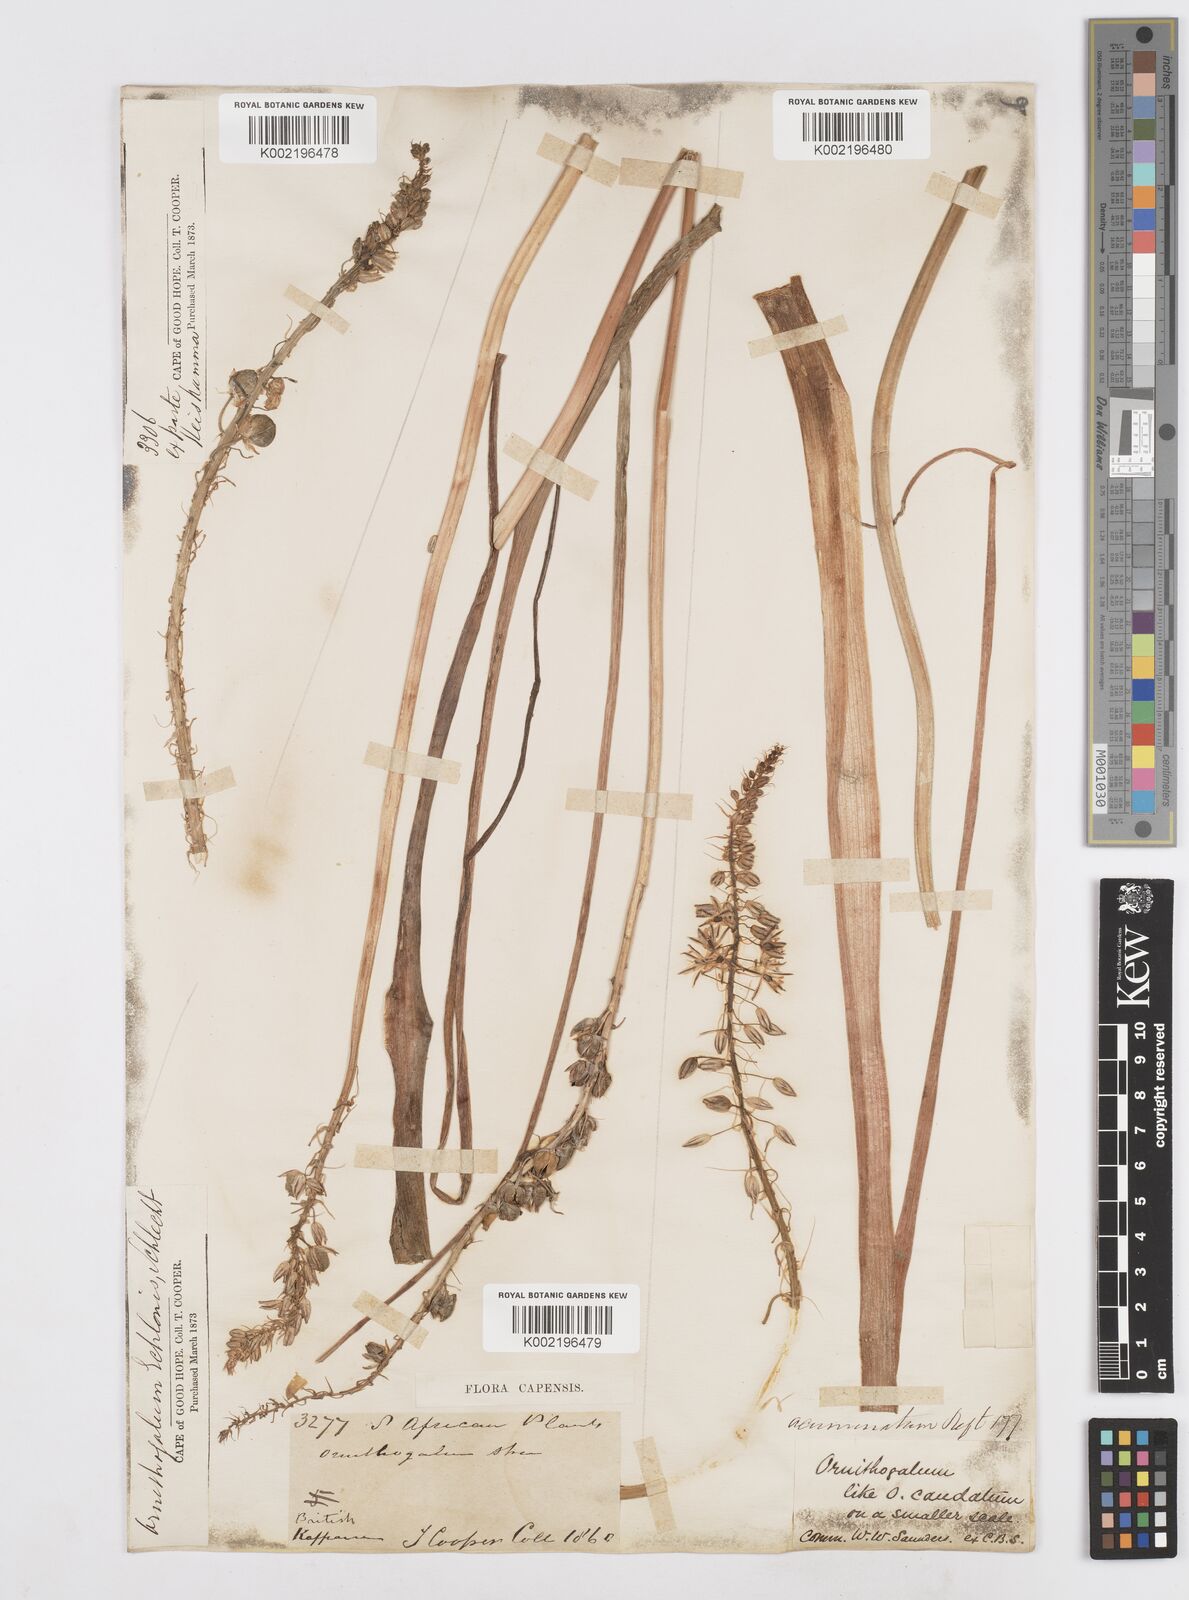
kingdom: Plantae
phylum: Tracheophyta
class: Liliopsida
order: Asparagales
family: Asparagaceae
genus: Albuca
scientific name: Albuca virens
